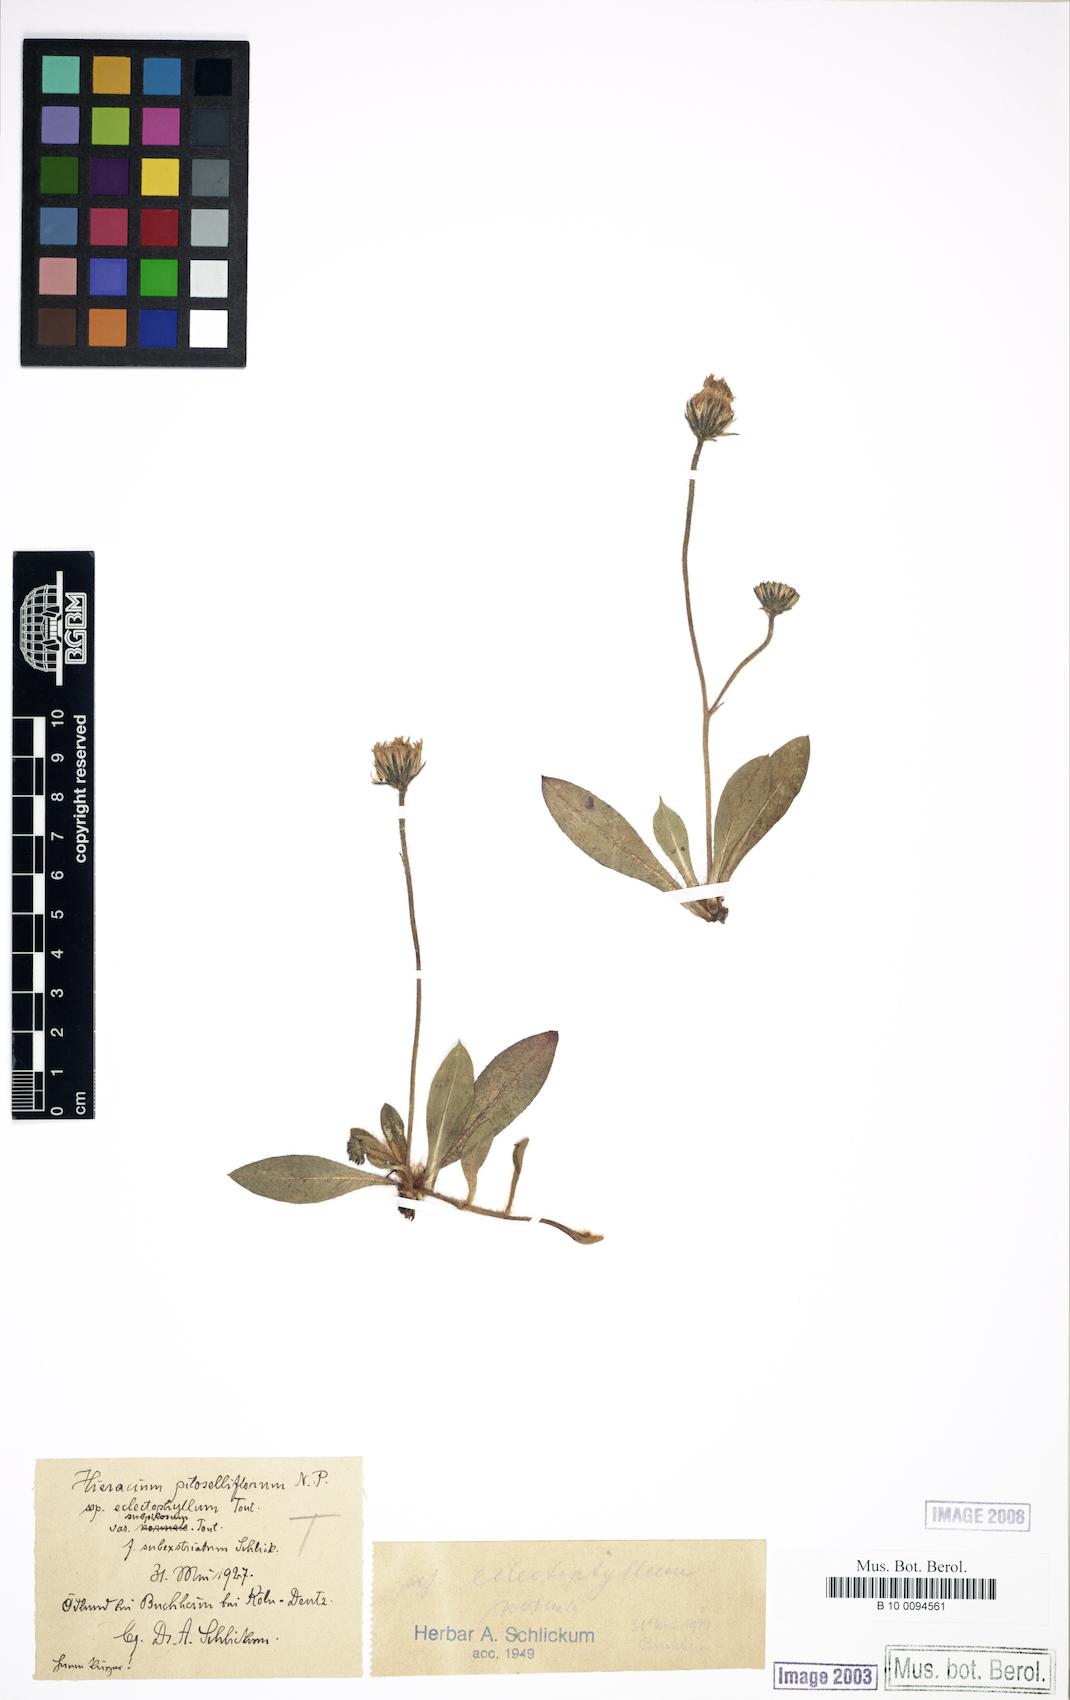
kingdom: Plantae
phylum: Tracheophyta
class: Magnoliopsida
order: Asterales
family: Asteraceae
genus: Pilosella
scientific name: Pilosella piloselliflora
